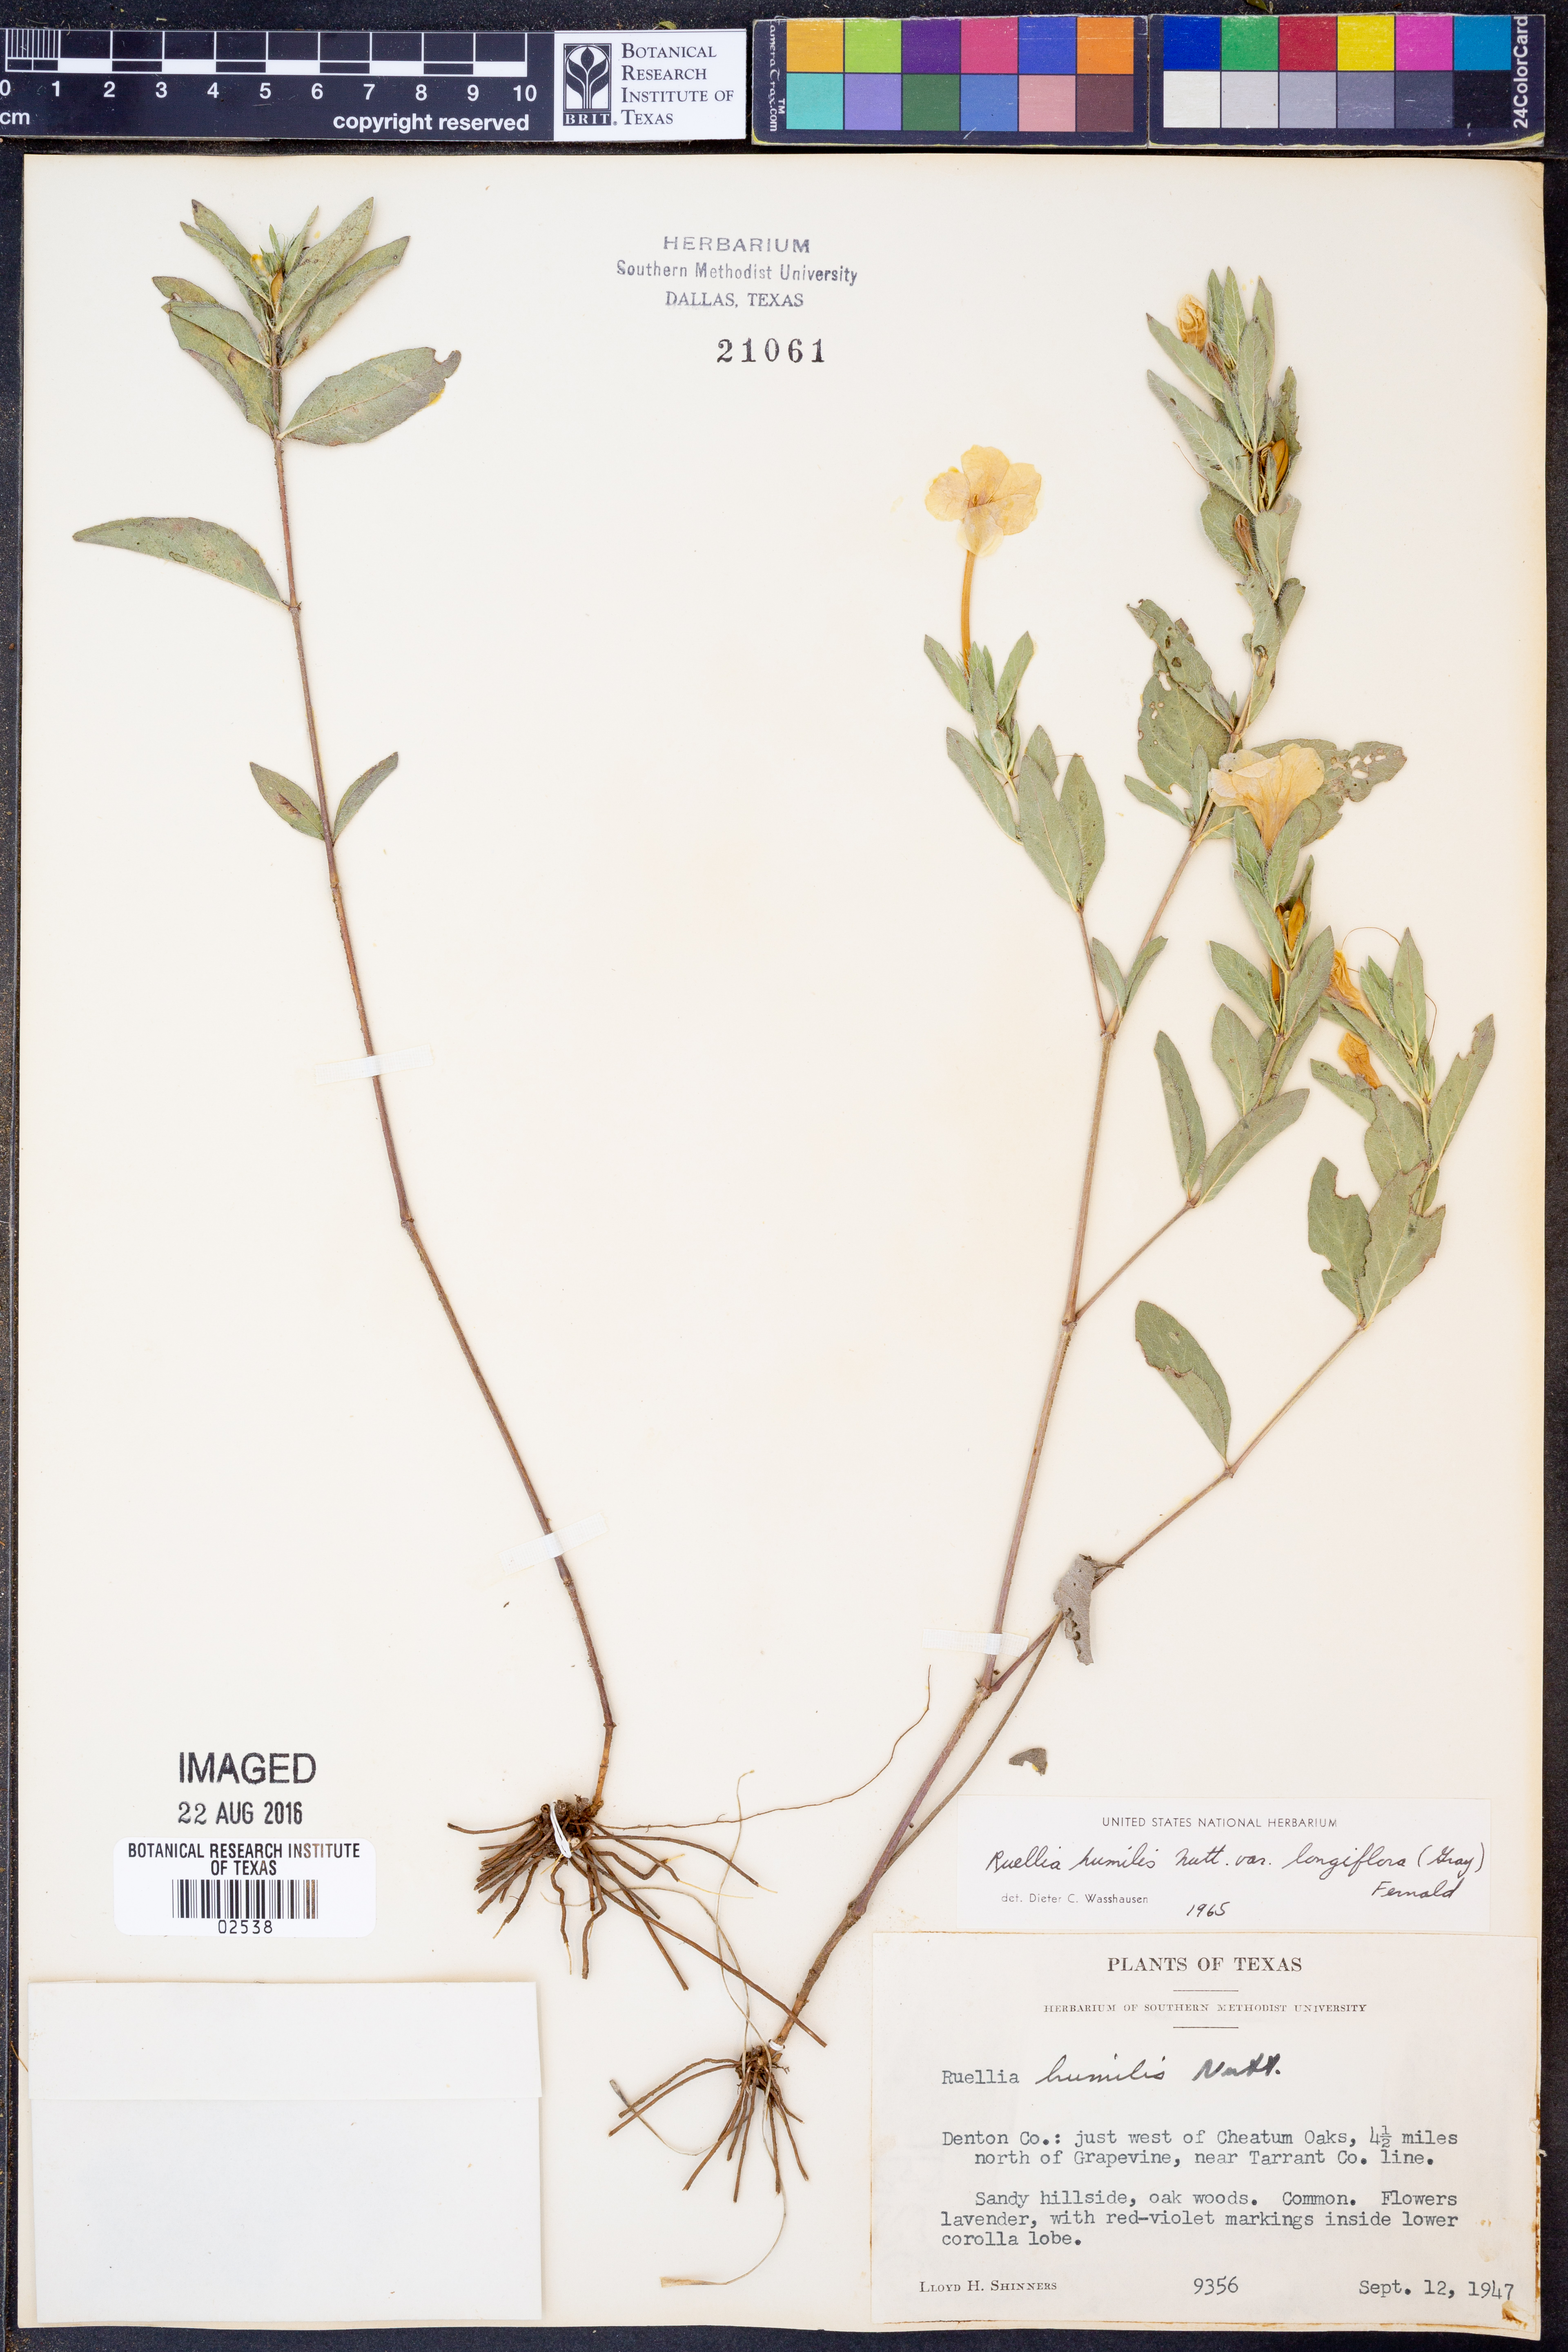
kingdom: Plantae
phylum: Tracheophyta
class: Magnoliopsida
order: Lamiales
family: Acanthaceae
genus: Ruellia
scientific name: Ruellia humilis
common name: Fringe-leaf ruellia
